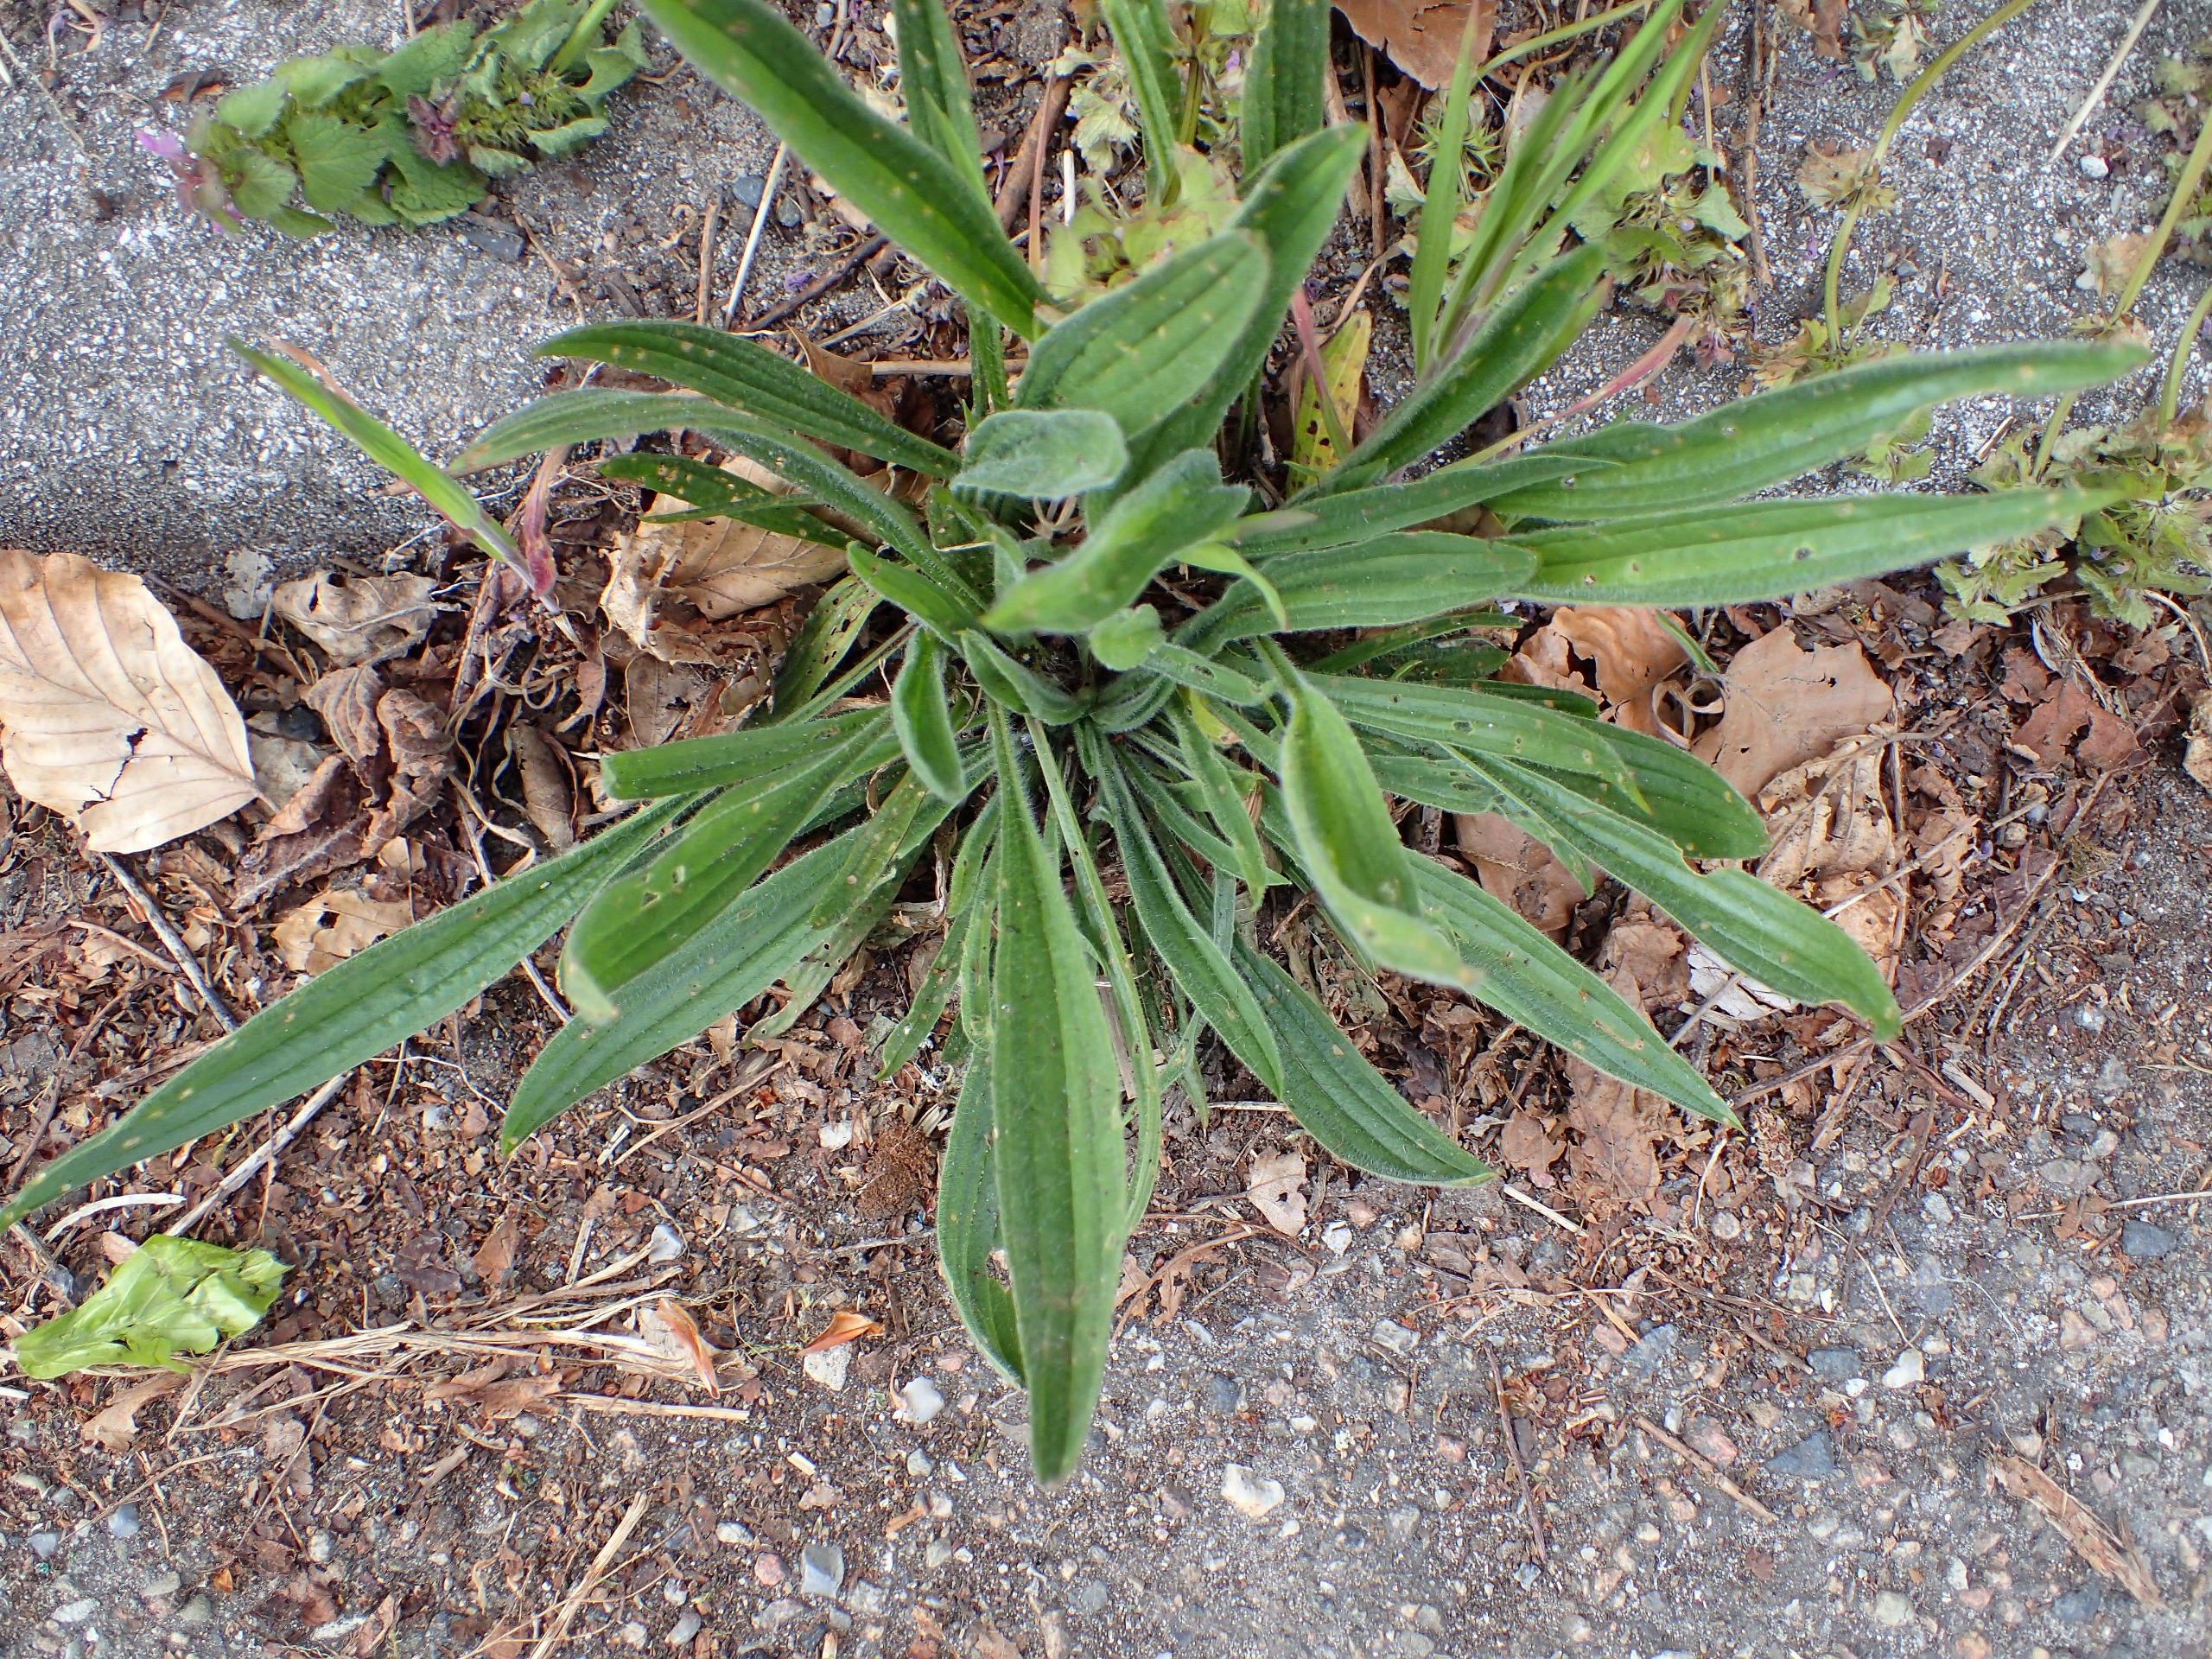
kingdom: Plantae
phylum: Tracheophyta
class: Magnoliopsida
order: Lamiales
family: Plantaginaceae
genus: Plantago
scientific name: Plantago lanceolata
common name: Lancet-vejbred
